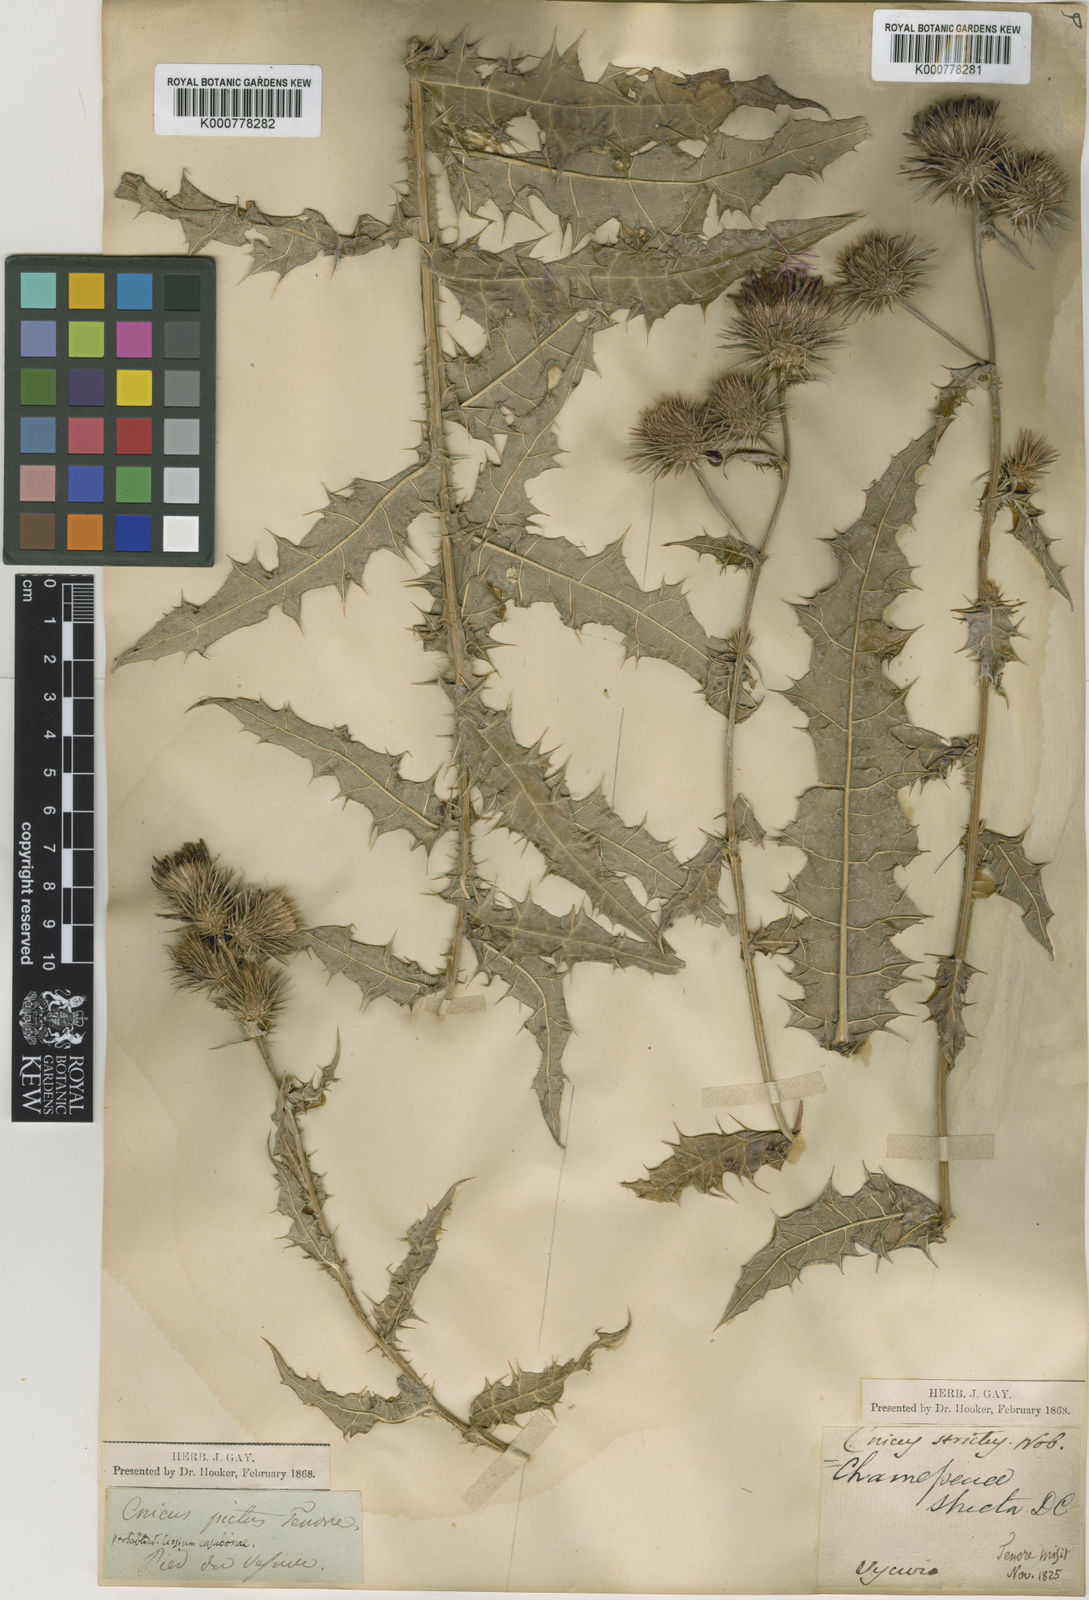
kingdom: Plantae
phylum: Tracheophyta
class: Magnoliopsida
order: Asterales
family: Asteraceae
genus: Ptilostemon
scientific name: Ptilostemon strictus
